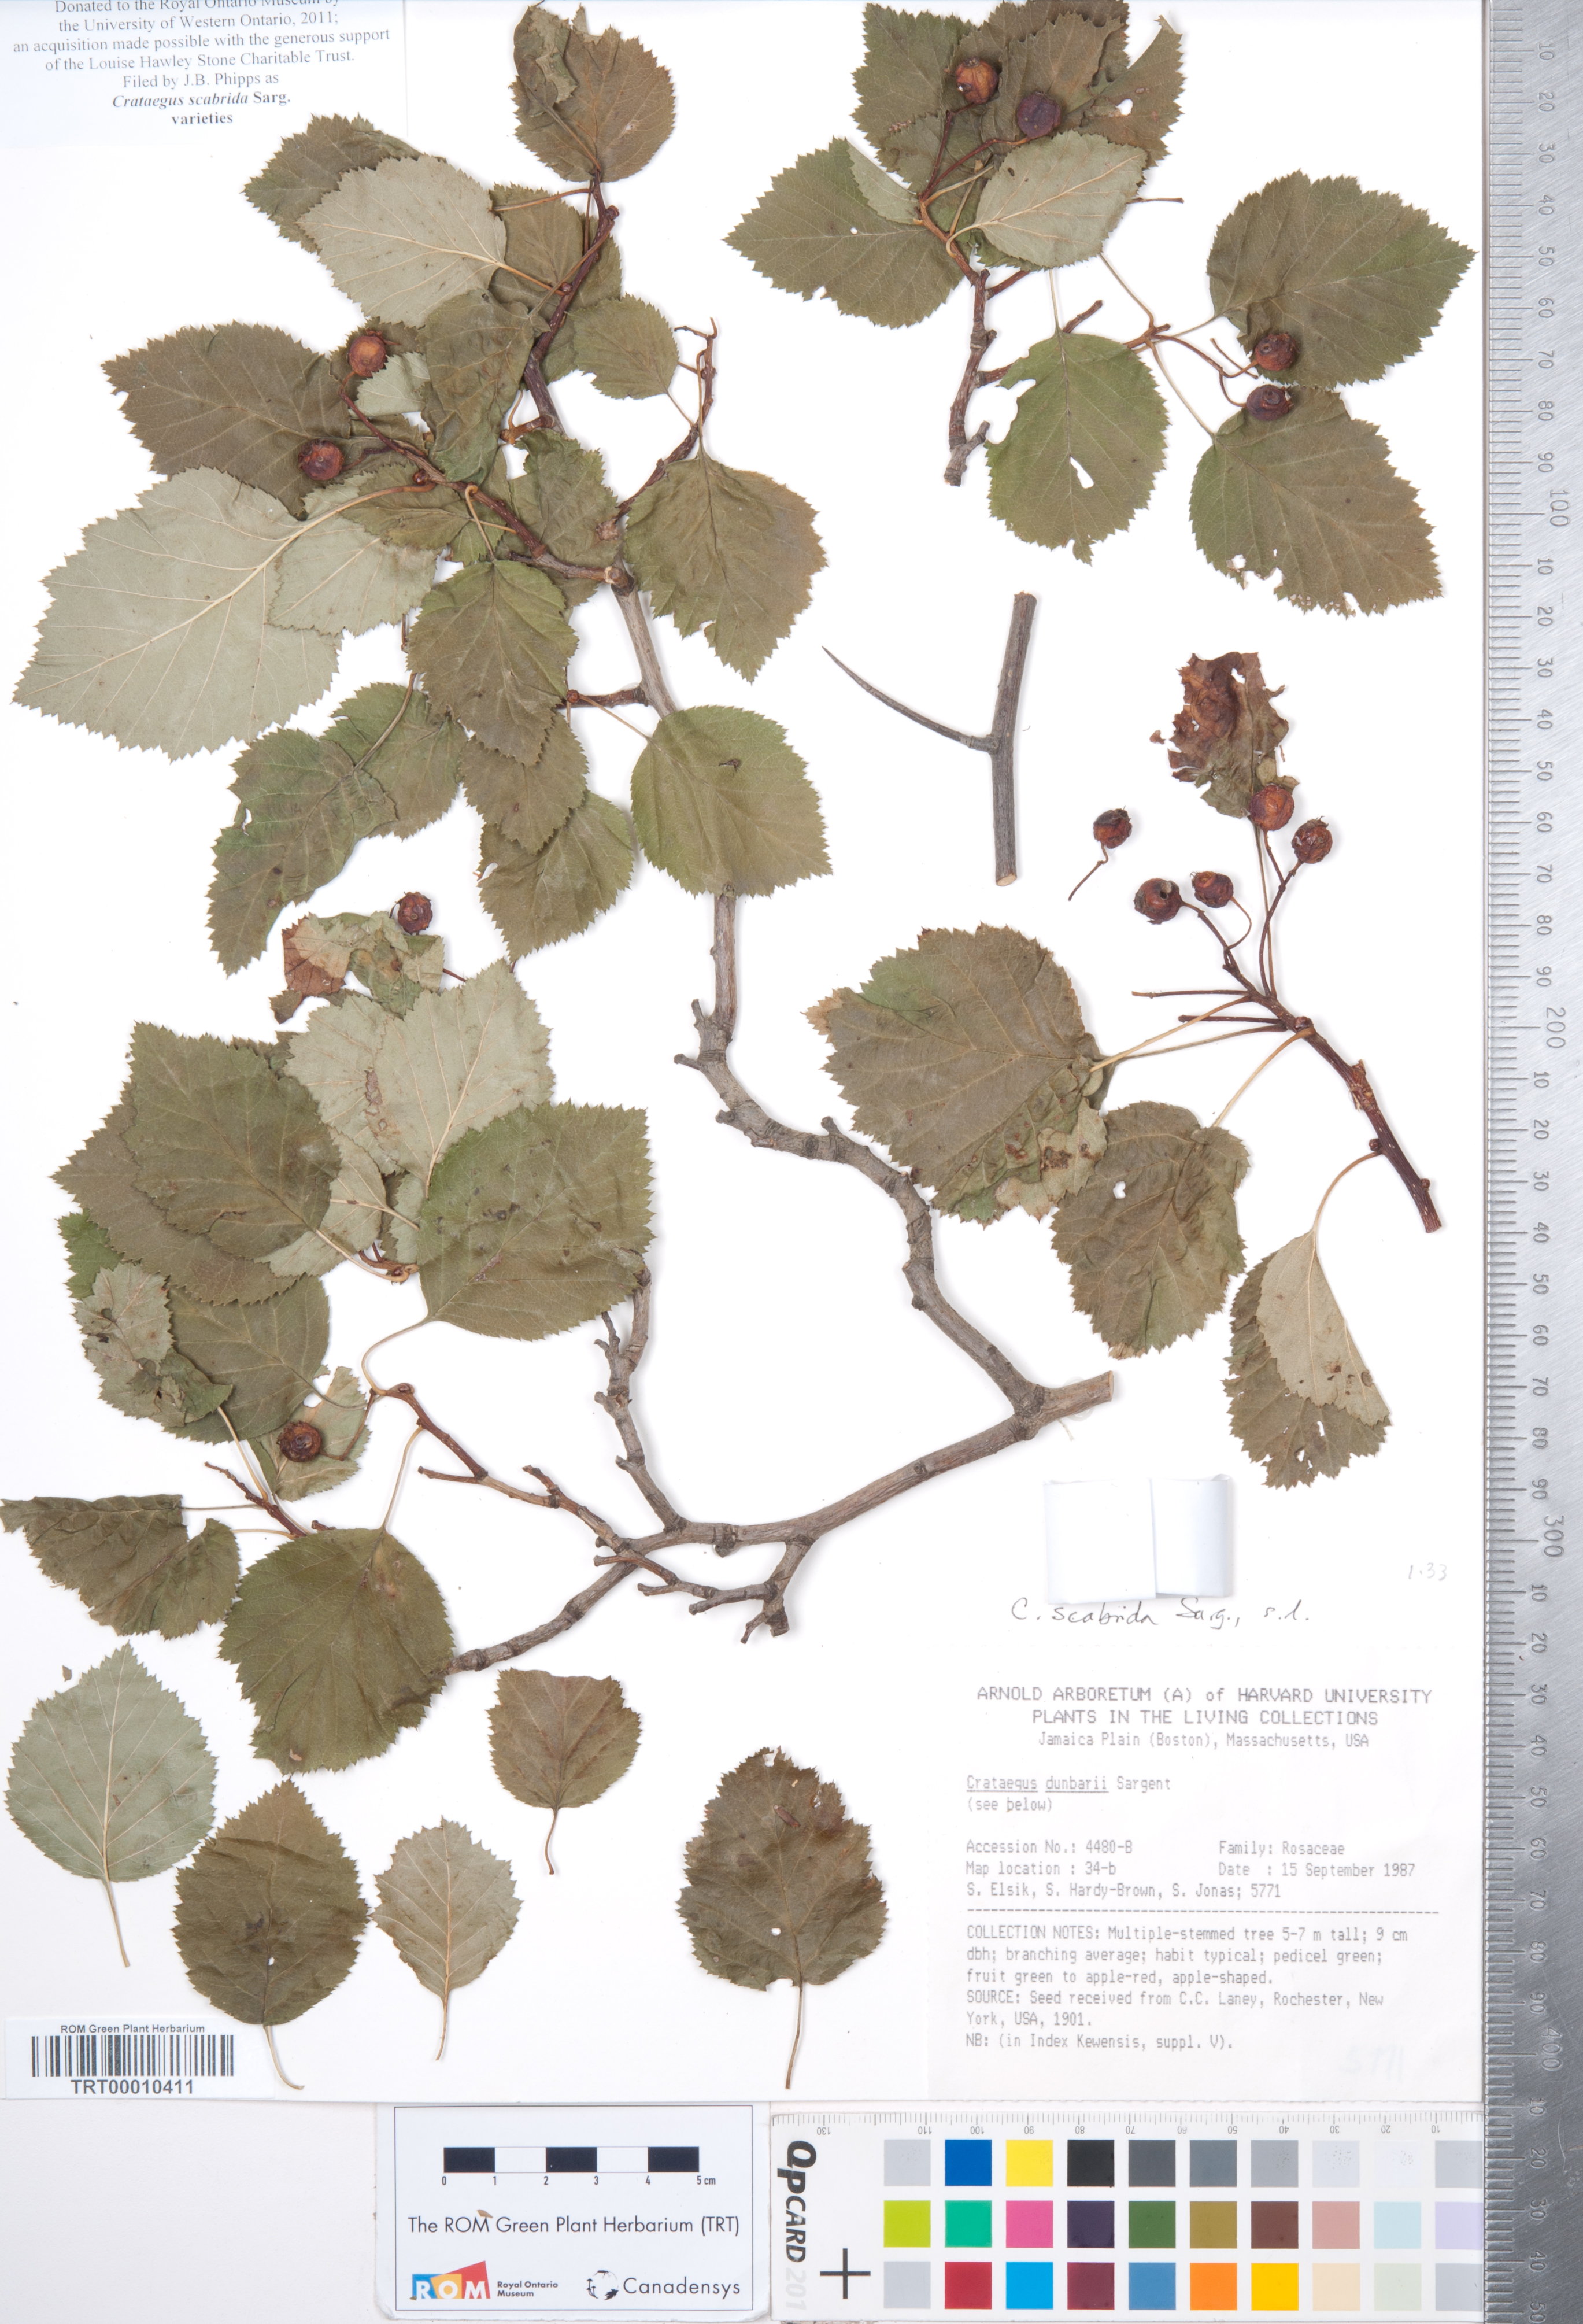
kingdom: Plantae
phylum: Tracheophyta
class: Magnoliopsida
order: Rosales
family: Rosaceae
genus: Crataegus
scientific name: Crataegus scabrida
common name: Rough hawthorn
